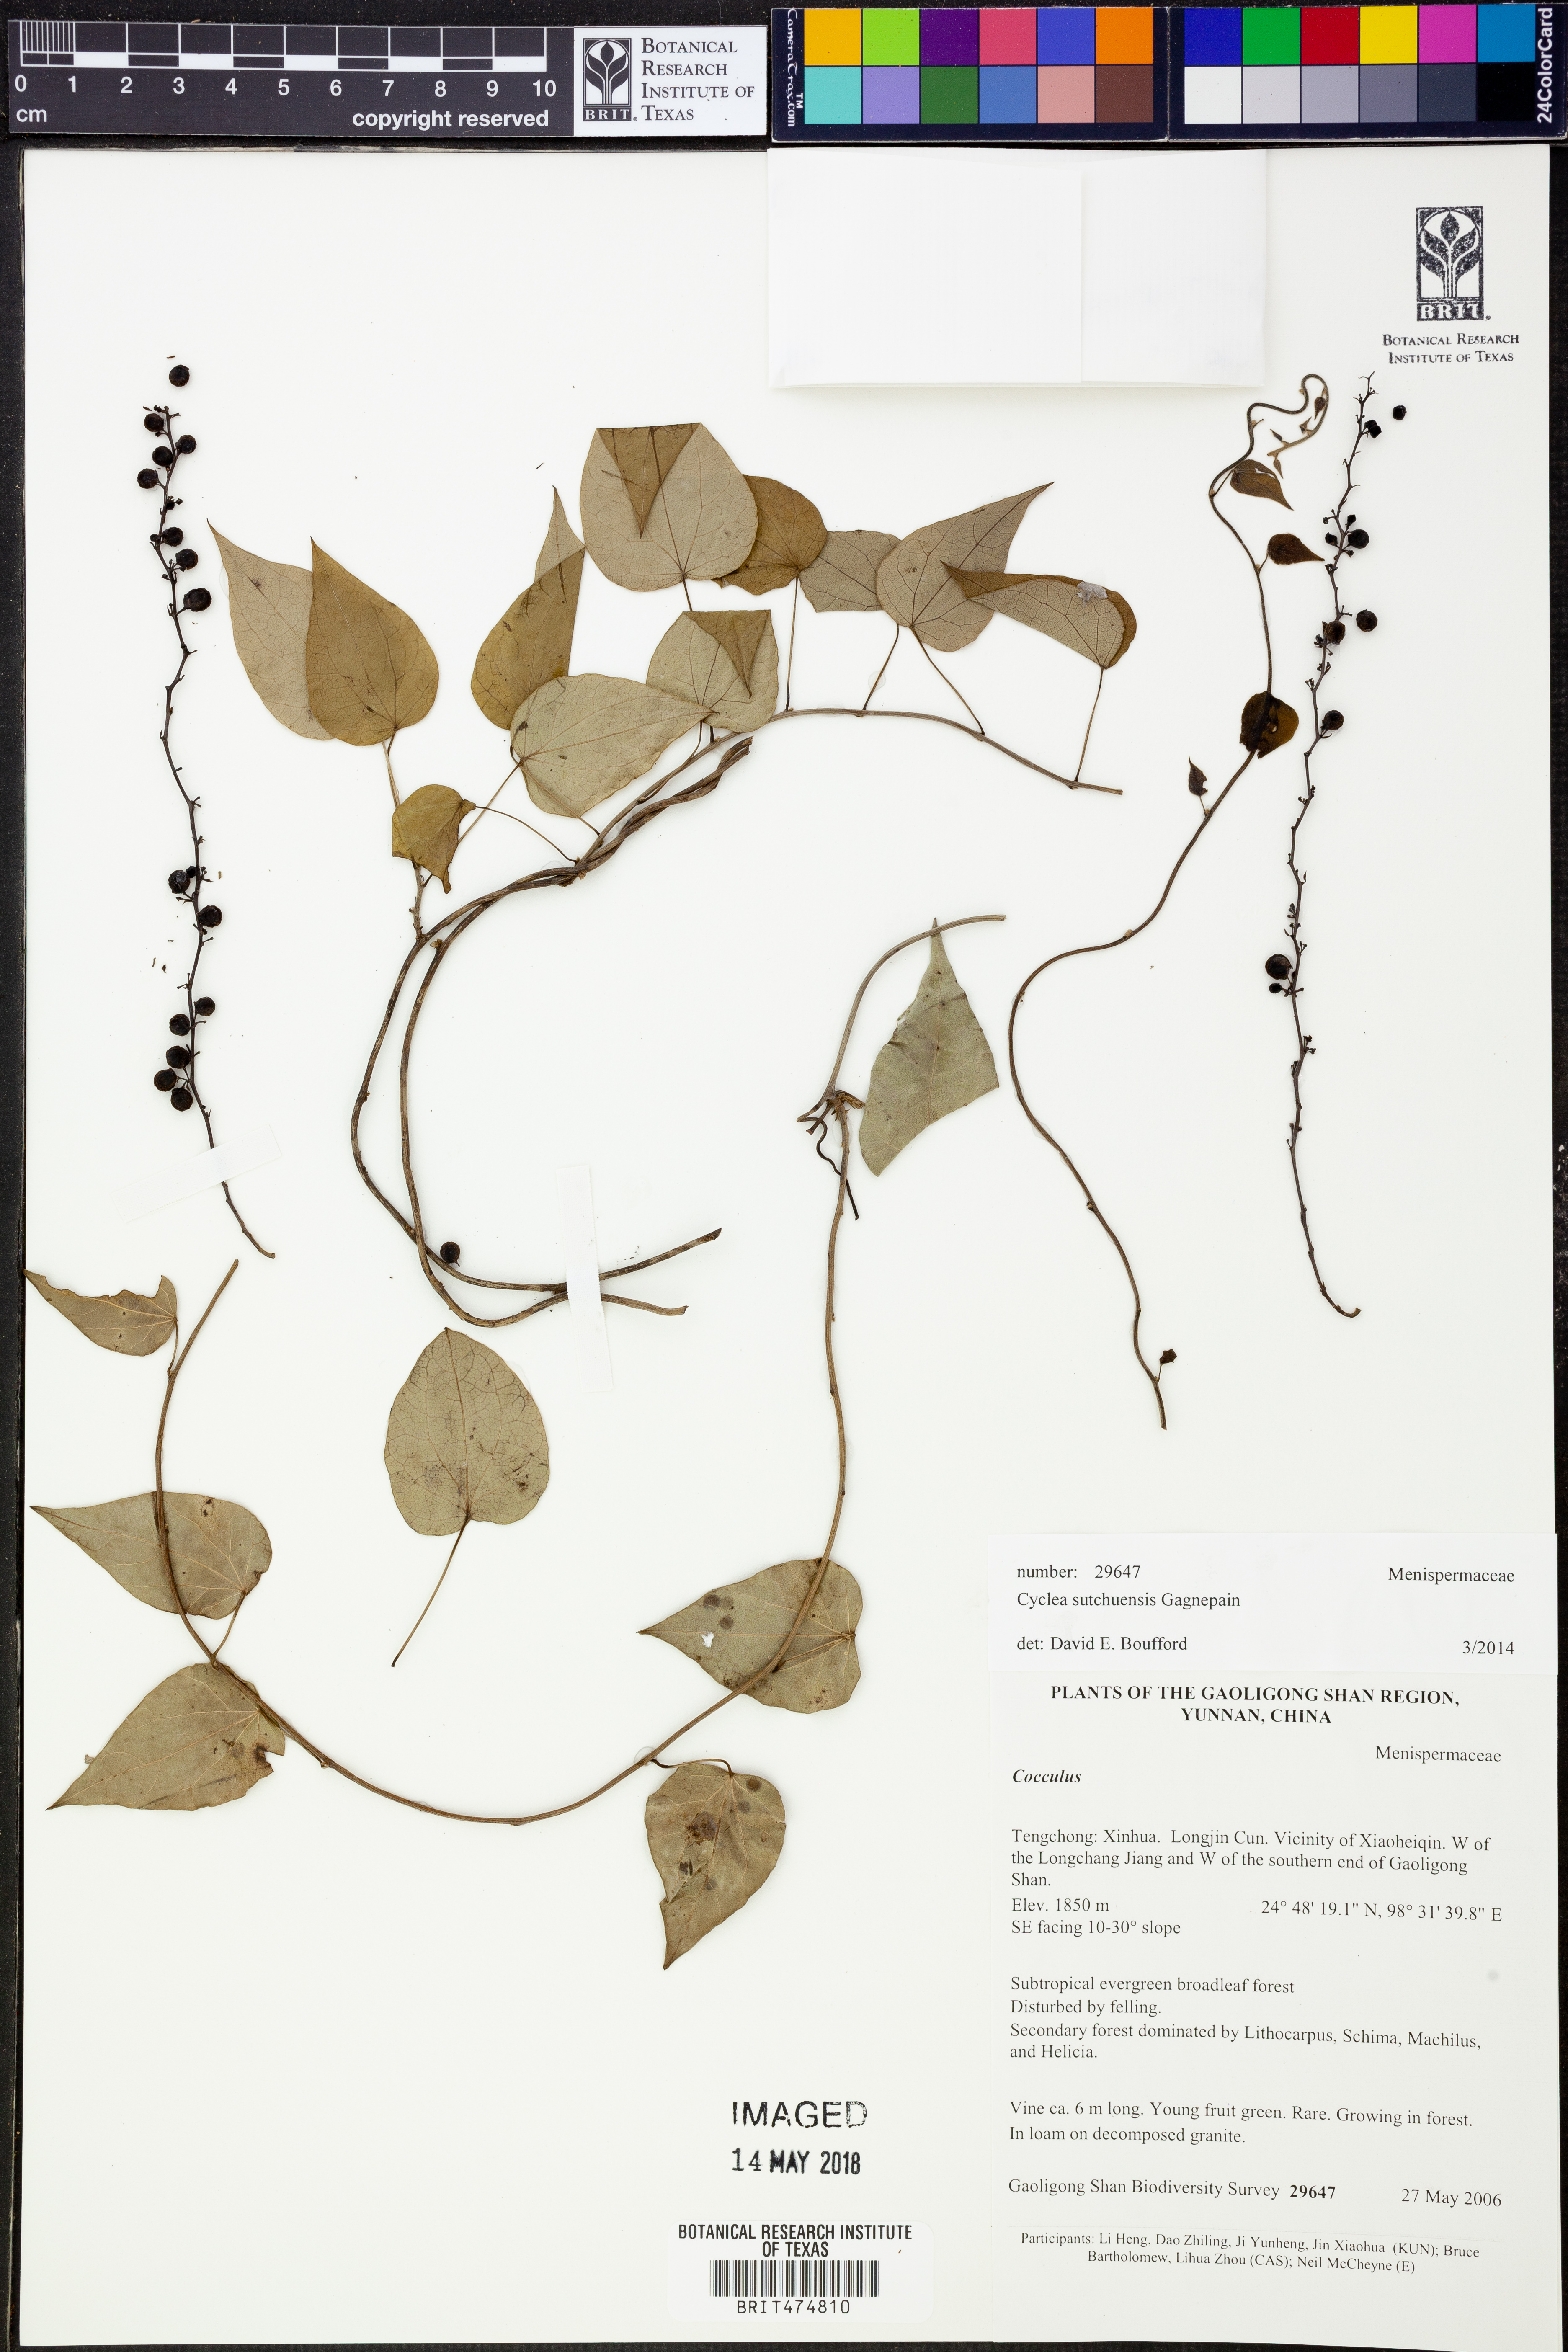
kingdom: Plantae
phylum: Tracheophyta
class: Magnoliopsida
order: Ranunculales
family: Menispermaceae
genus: Cyclea
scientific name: Cyclea sutchuenensis
